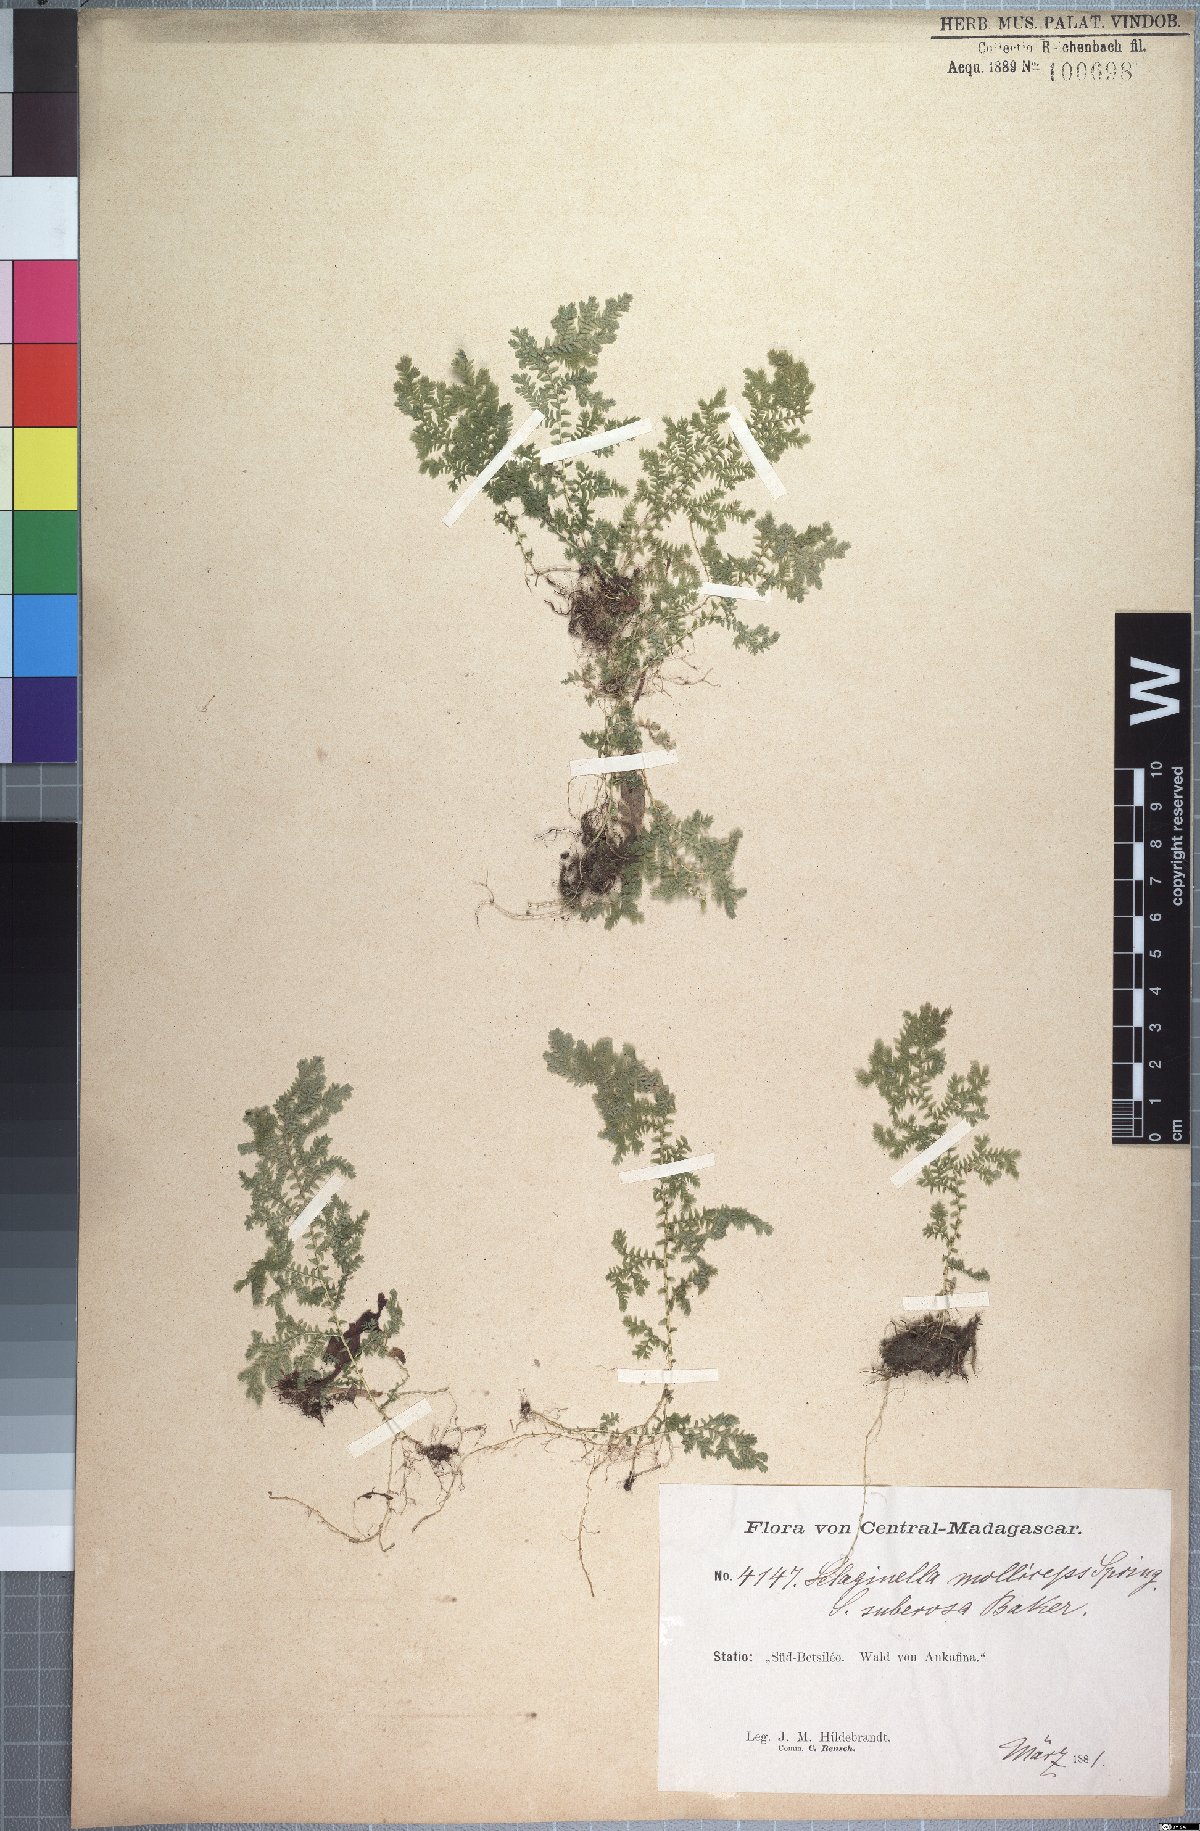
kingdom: Plantae
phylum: Tracheophyta
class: Lycopodiopsida
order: Selaginellales
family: Selaginellaceae
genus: Selaginella
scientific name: Selaginella goudotiana
